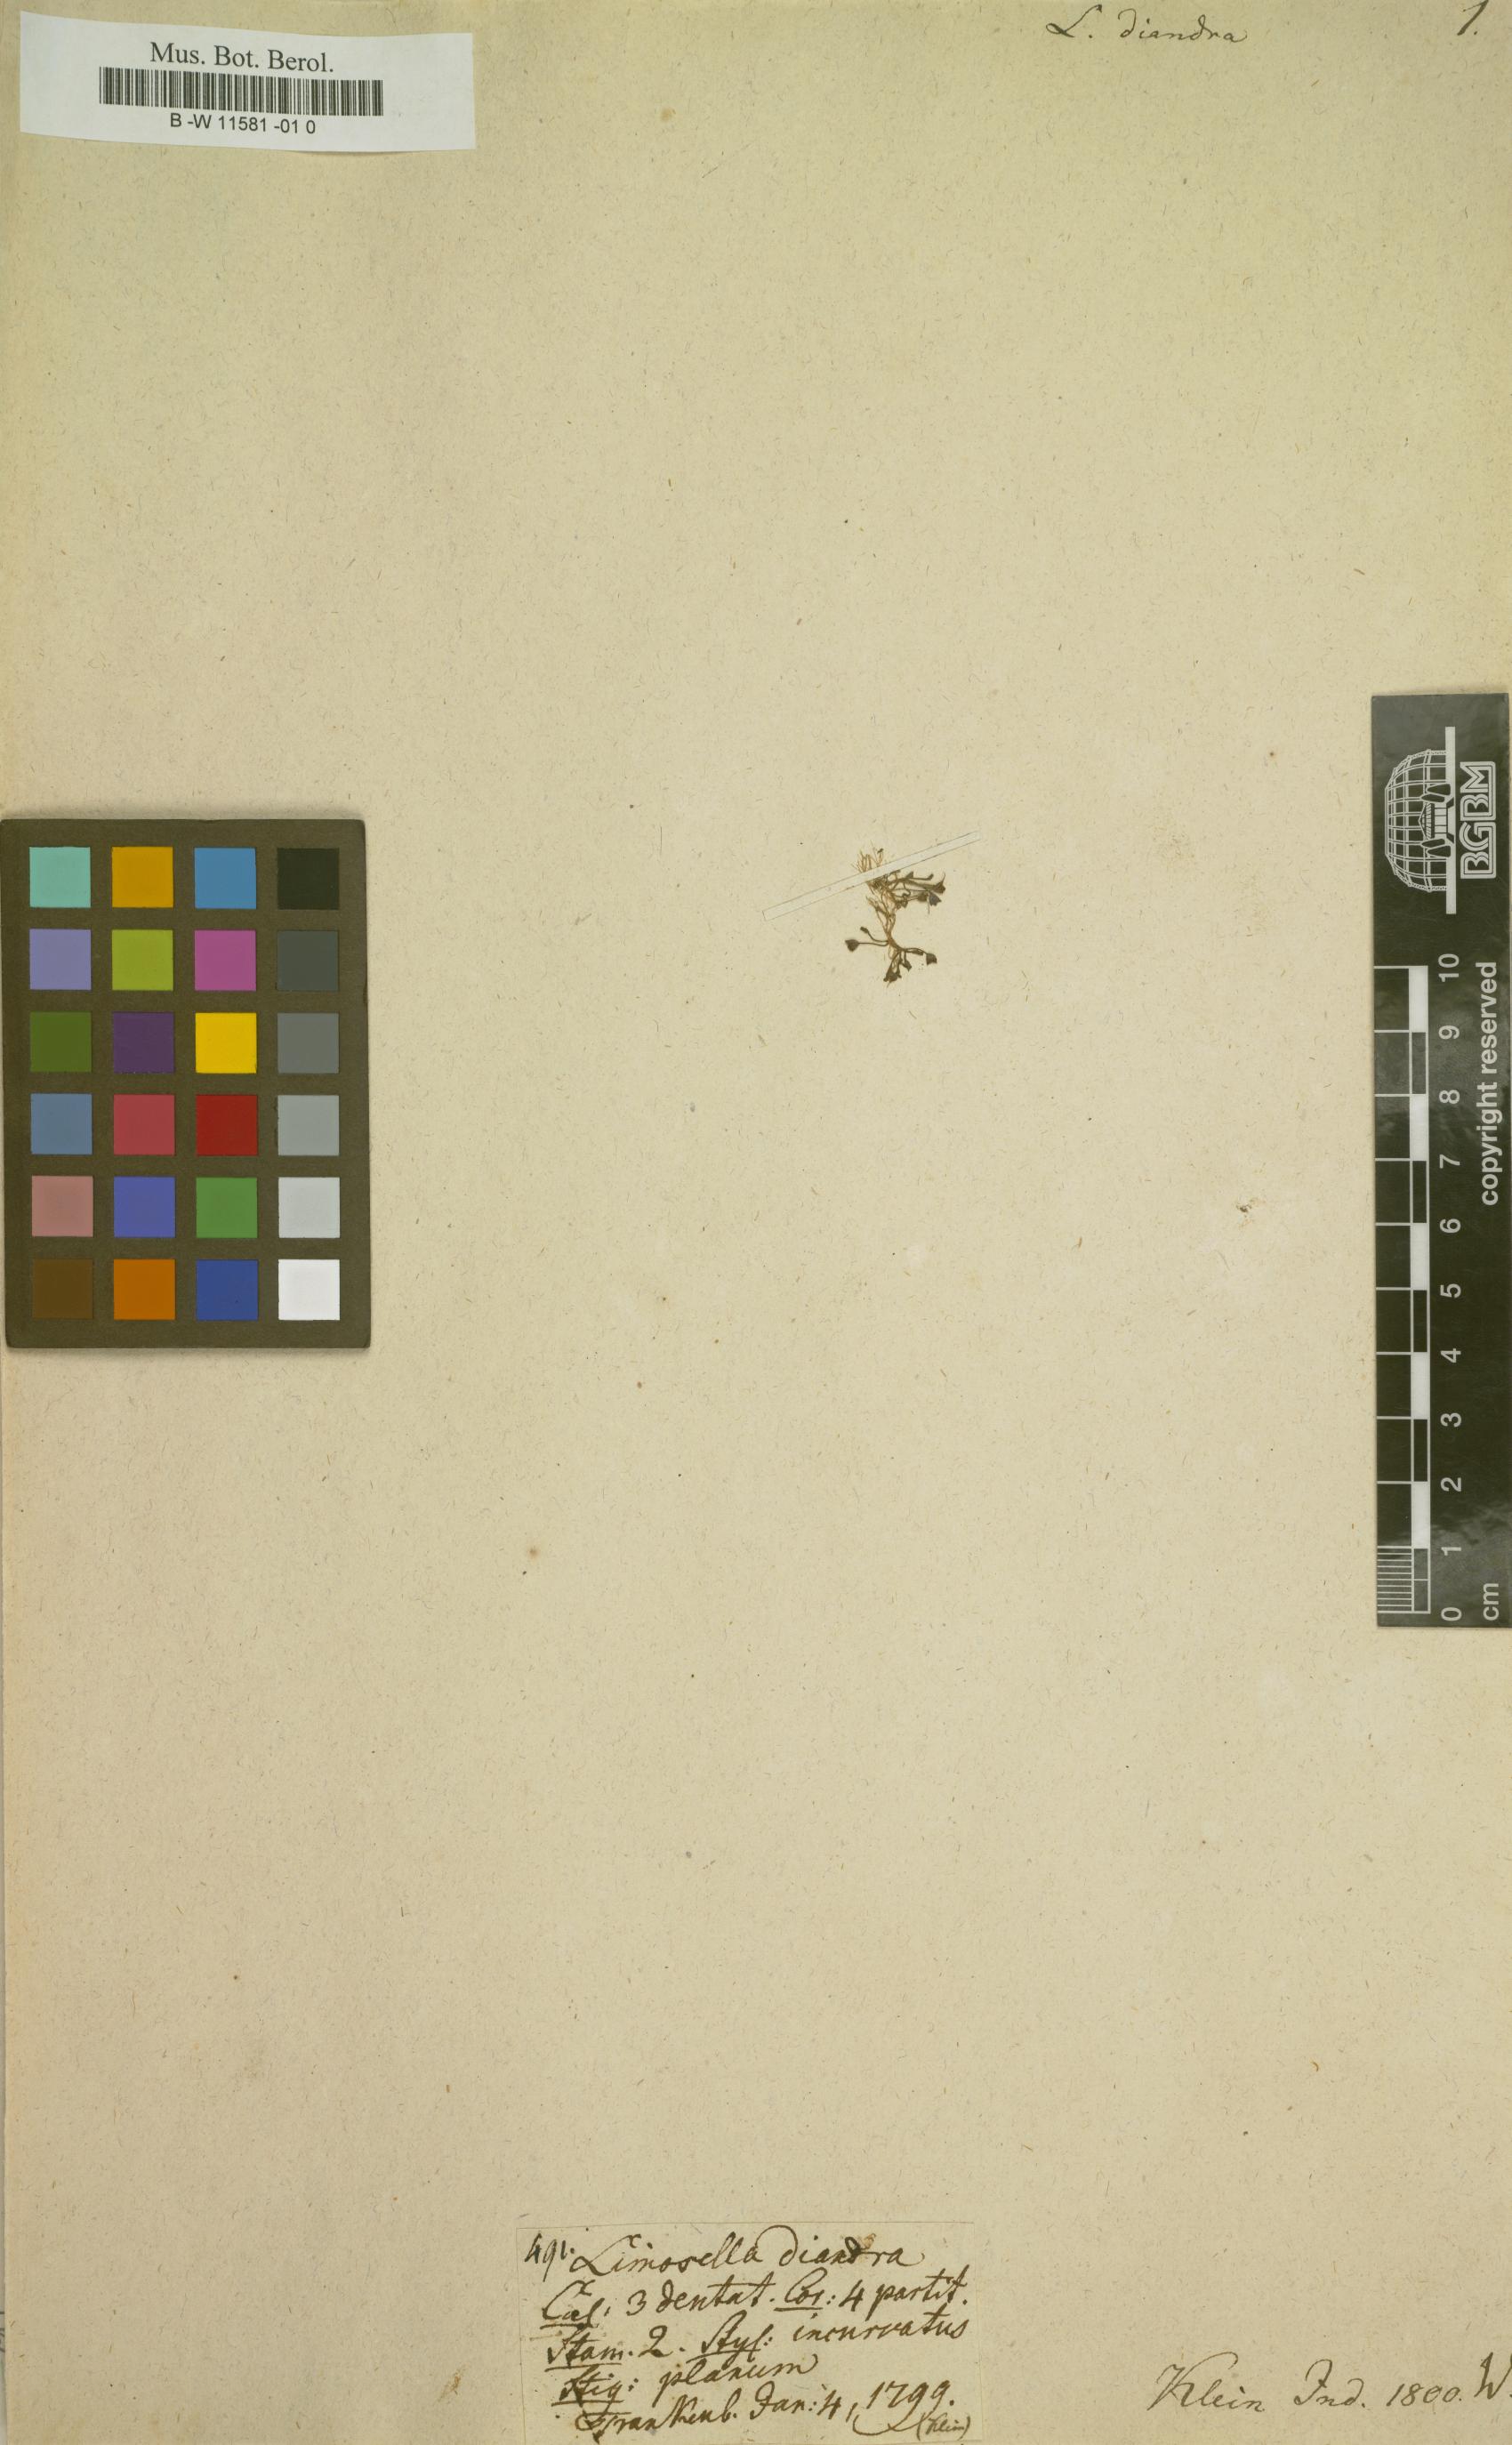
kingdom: Plantae
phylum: Tracheophyta
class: Magnoliopsida
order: Lamiales
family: Scrophulariaceae
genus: Limosella
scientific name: Limosella aquatica
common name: Mudwort
